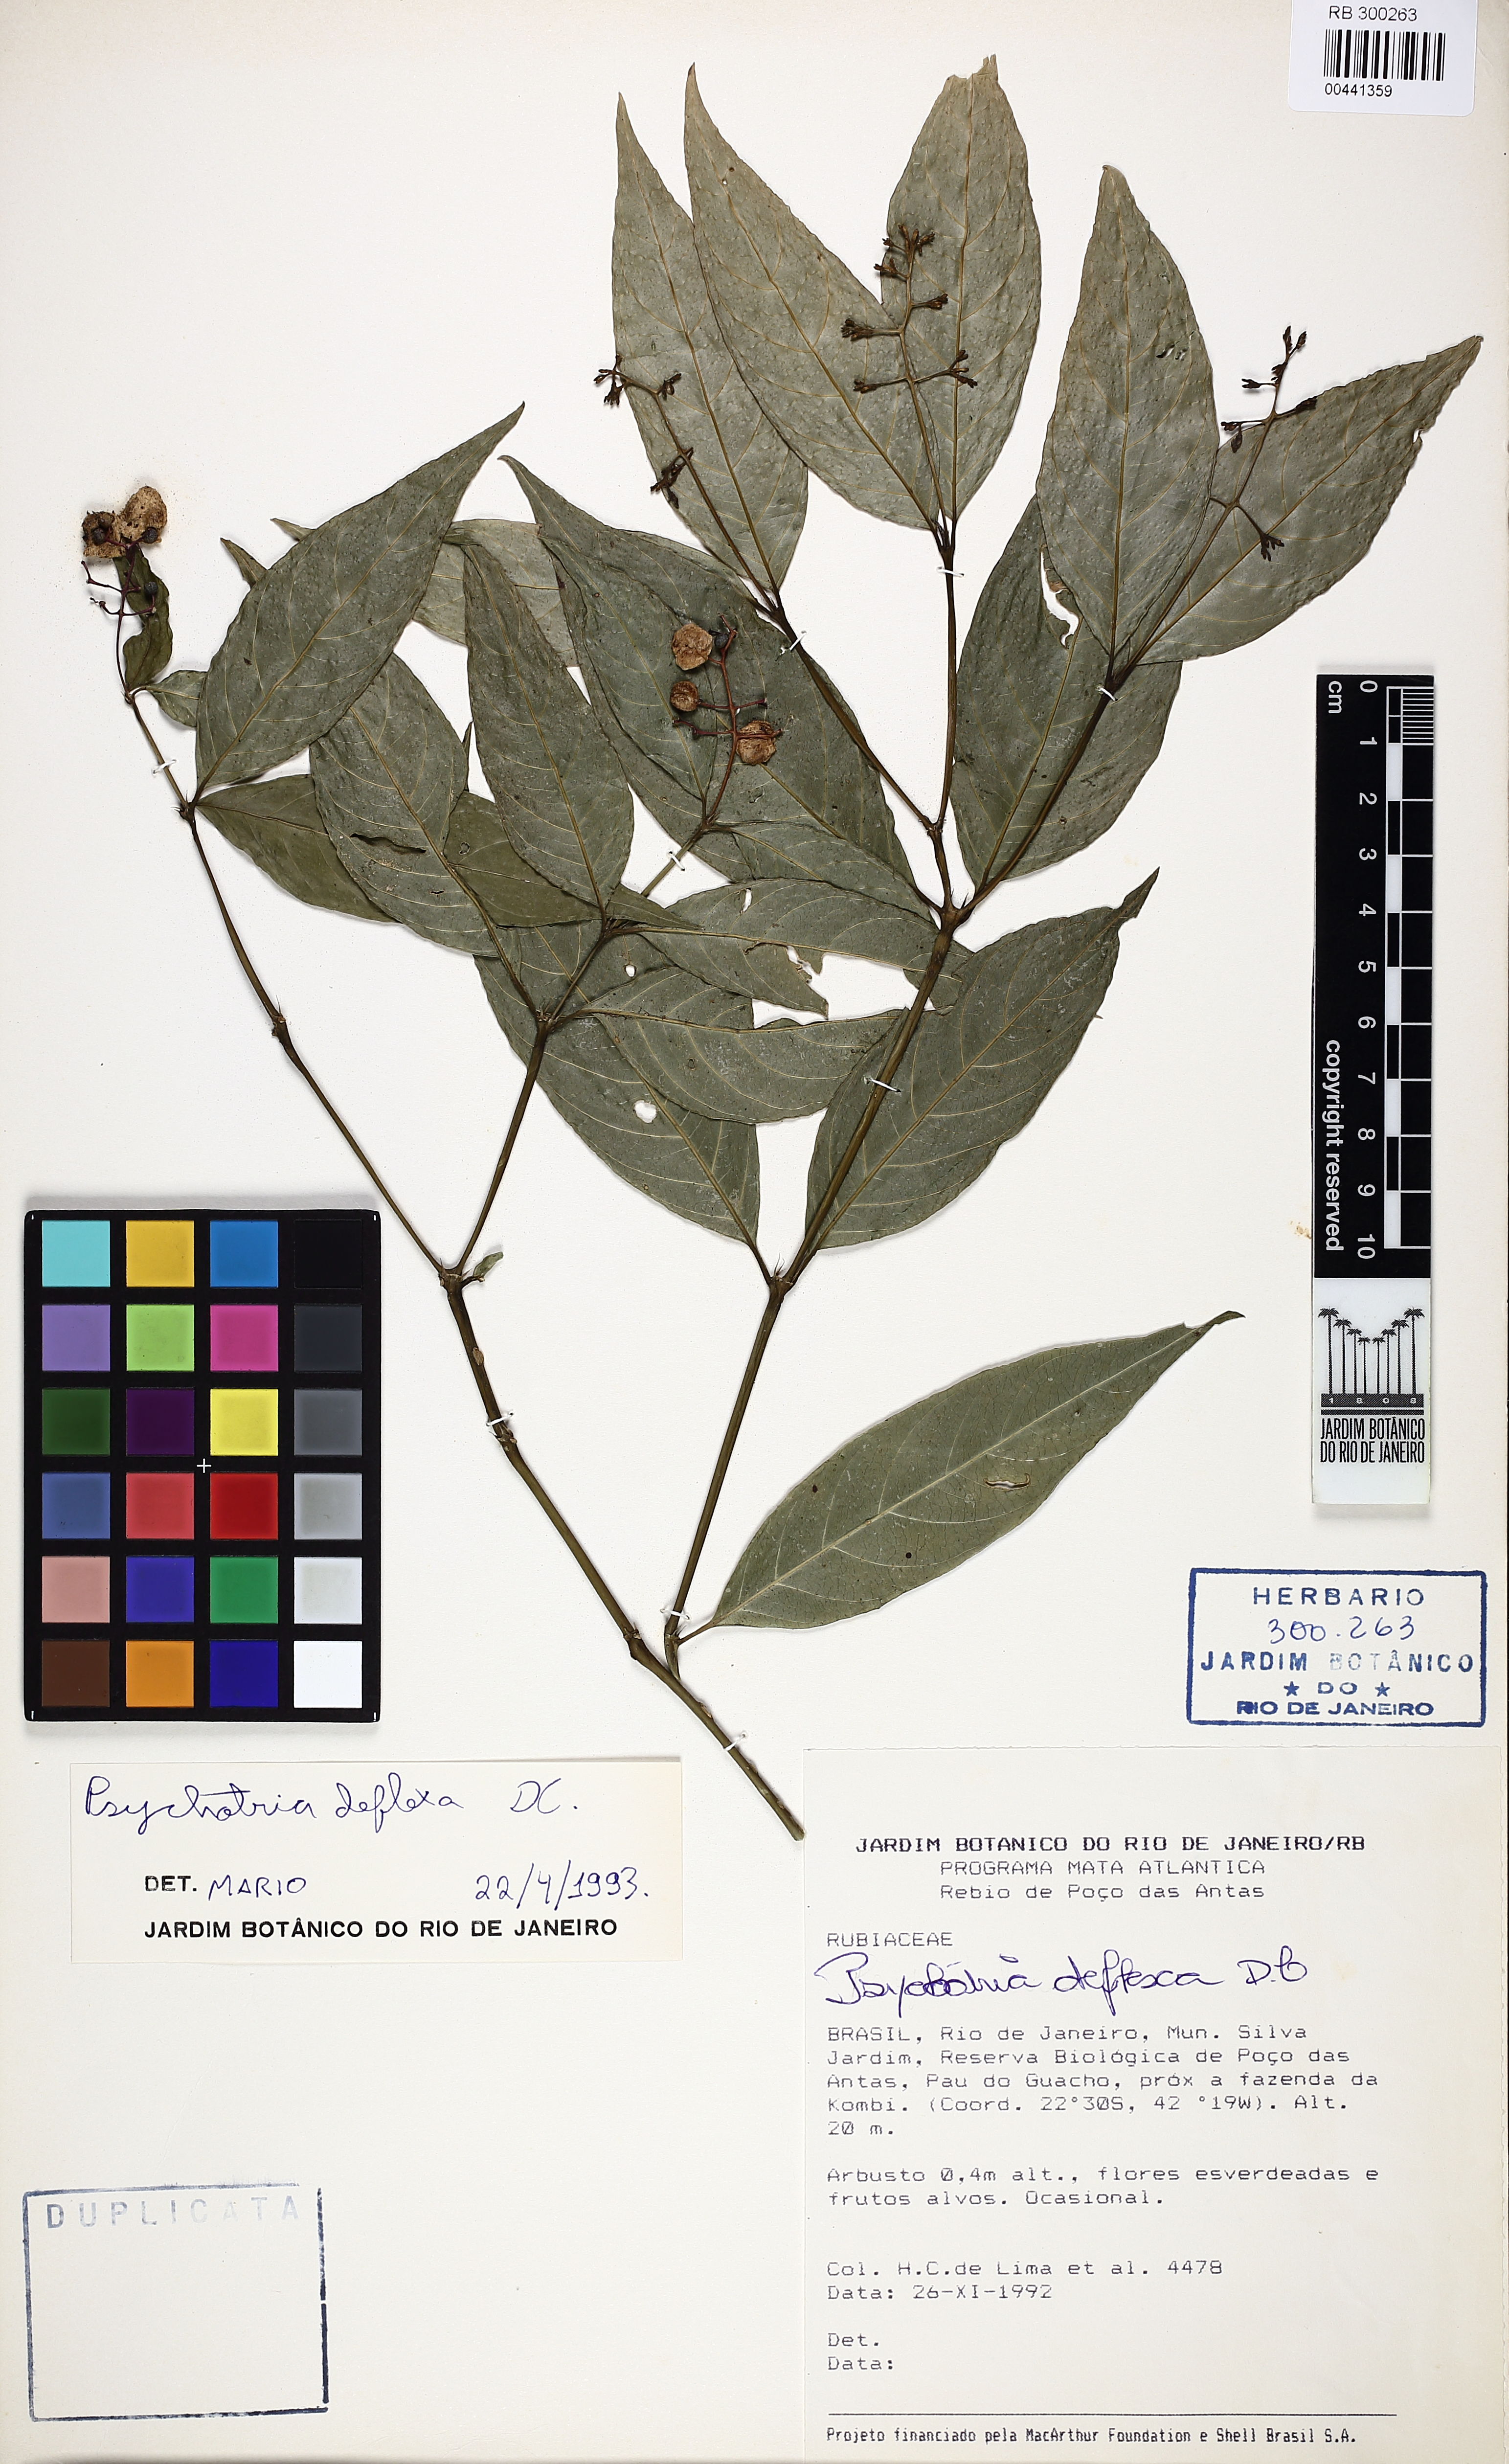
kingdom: Plantae
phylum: Tracheophyta
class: Magnoliopsida
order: Gentianales
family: Rubiaceae
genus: Palicourea
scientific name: Palicourea deflexa
